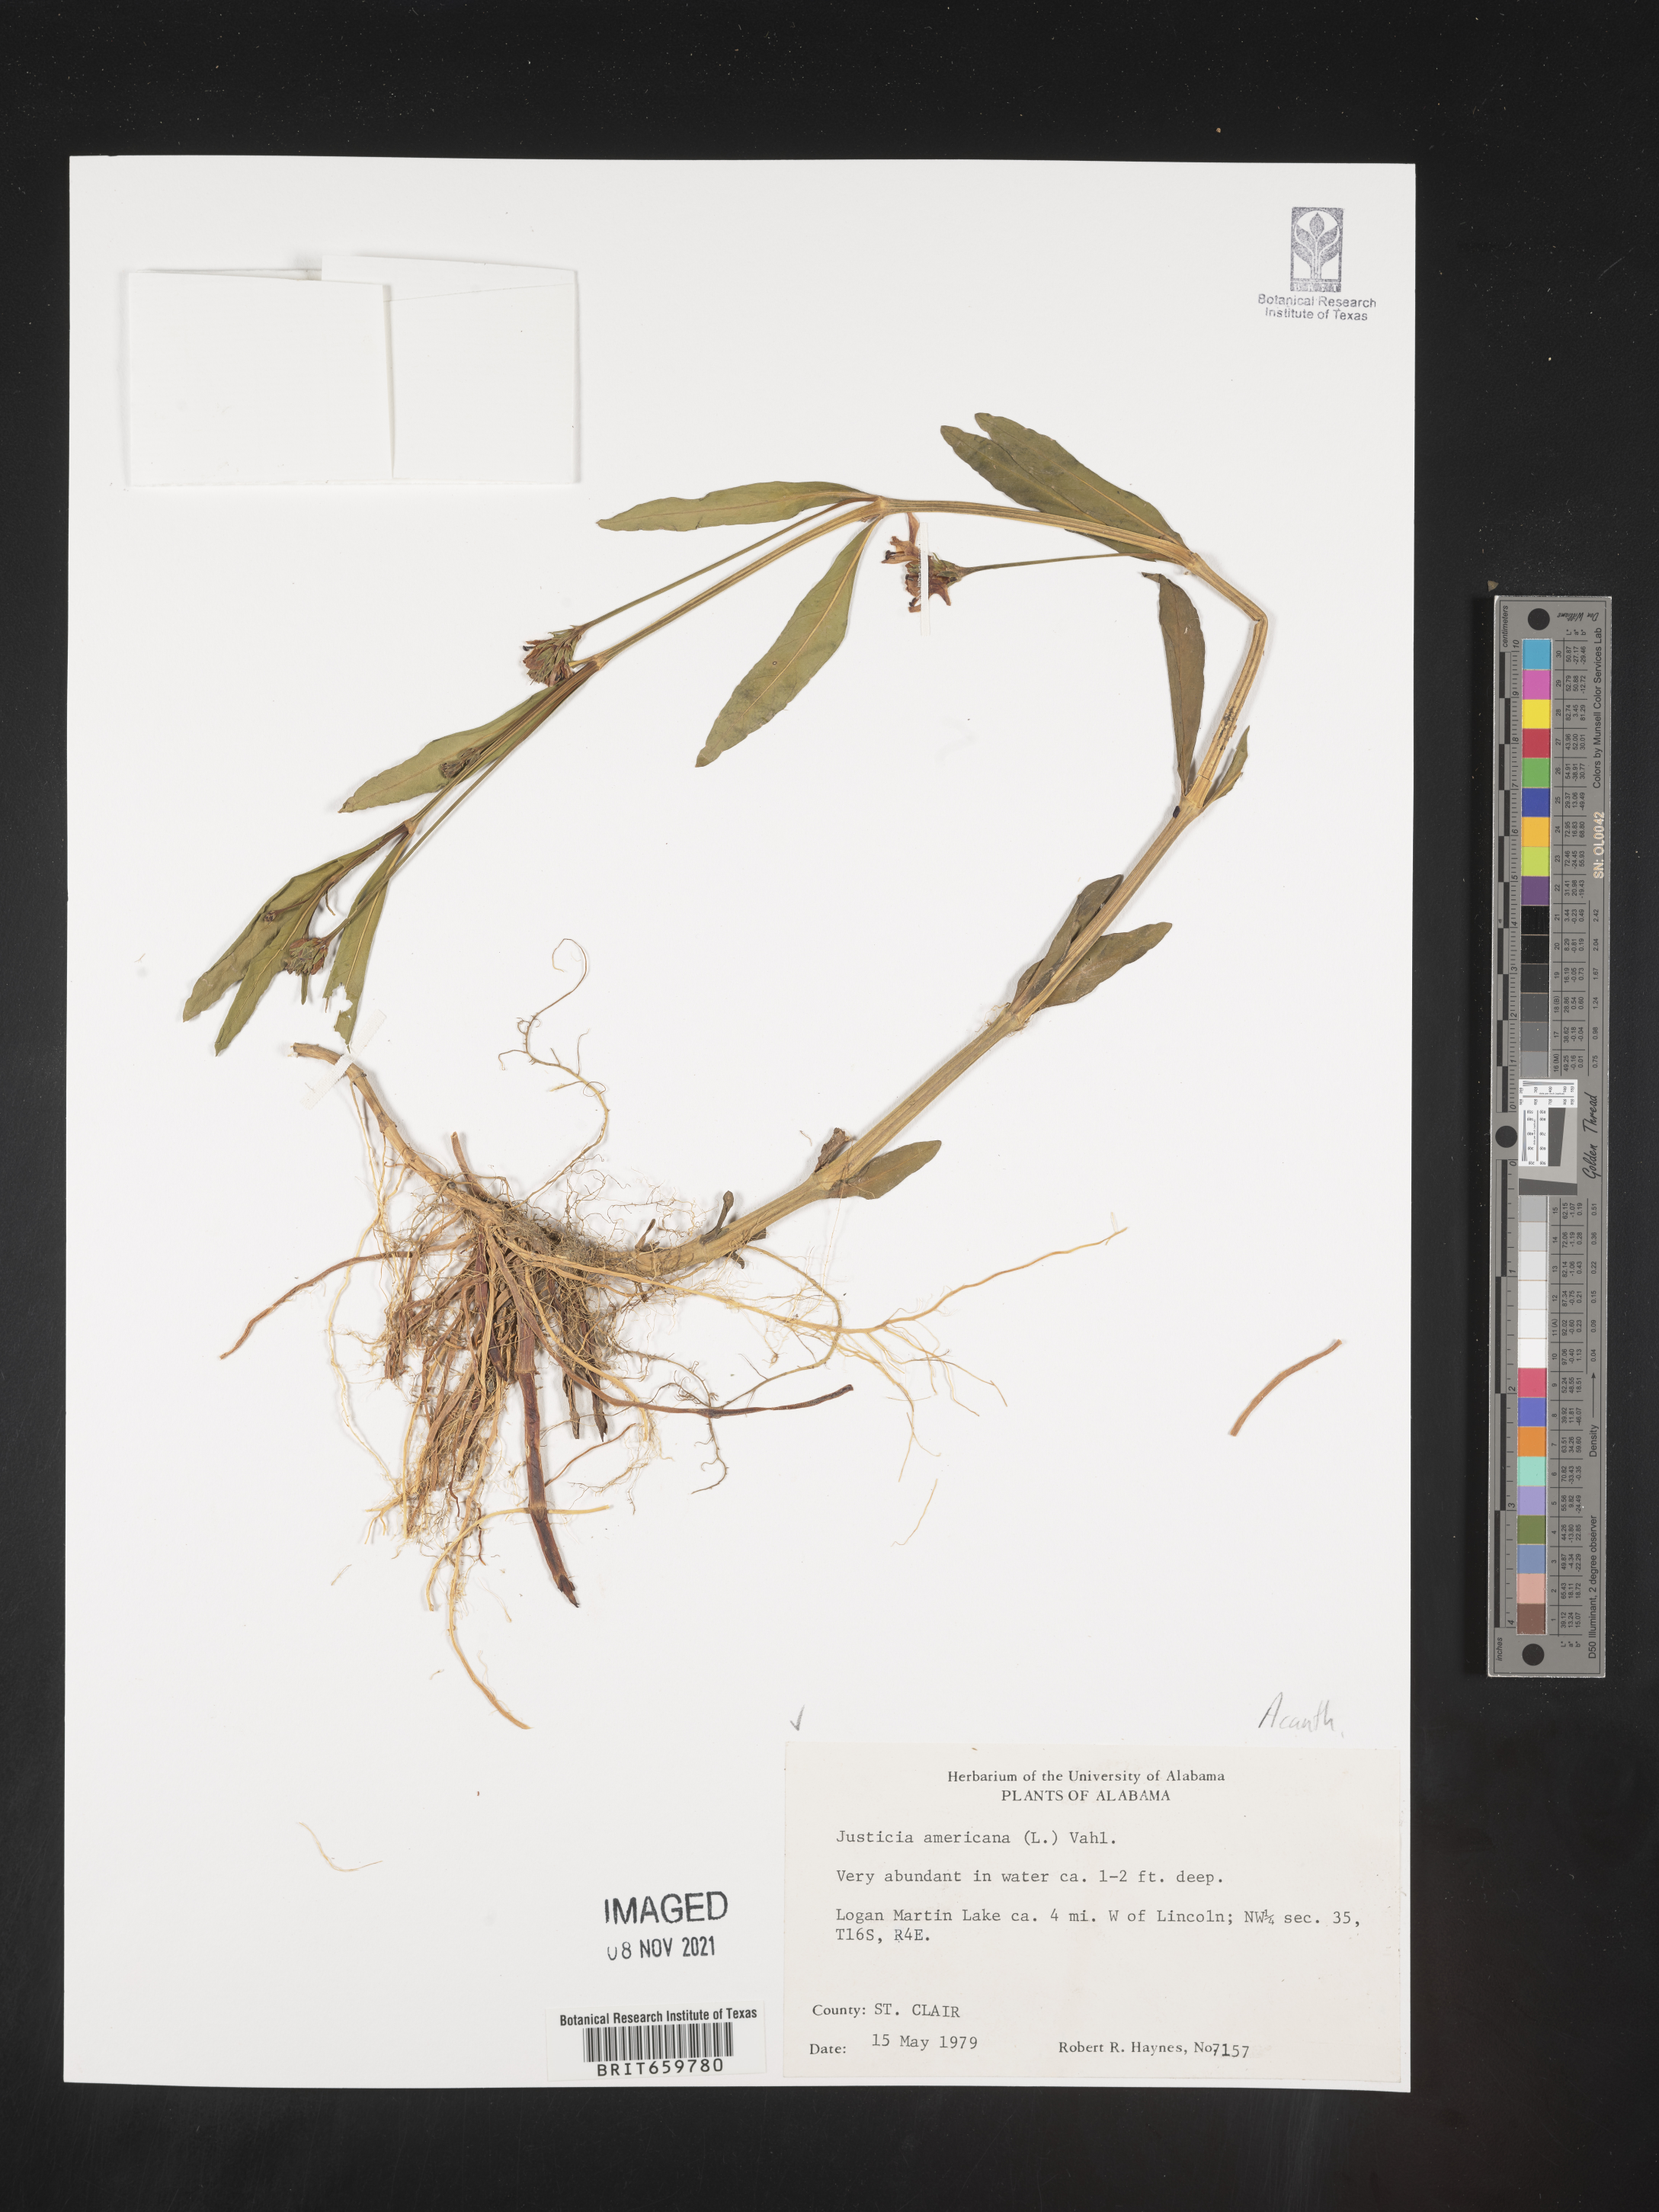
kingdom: Plantae
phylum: Tracheophyta
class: Magnoliopsida
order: Lamiales
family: Acanthaceae
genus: Dianthera
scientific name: Dianthera americana
